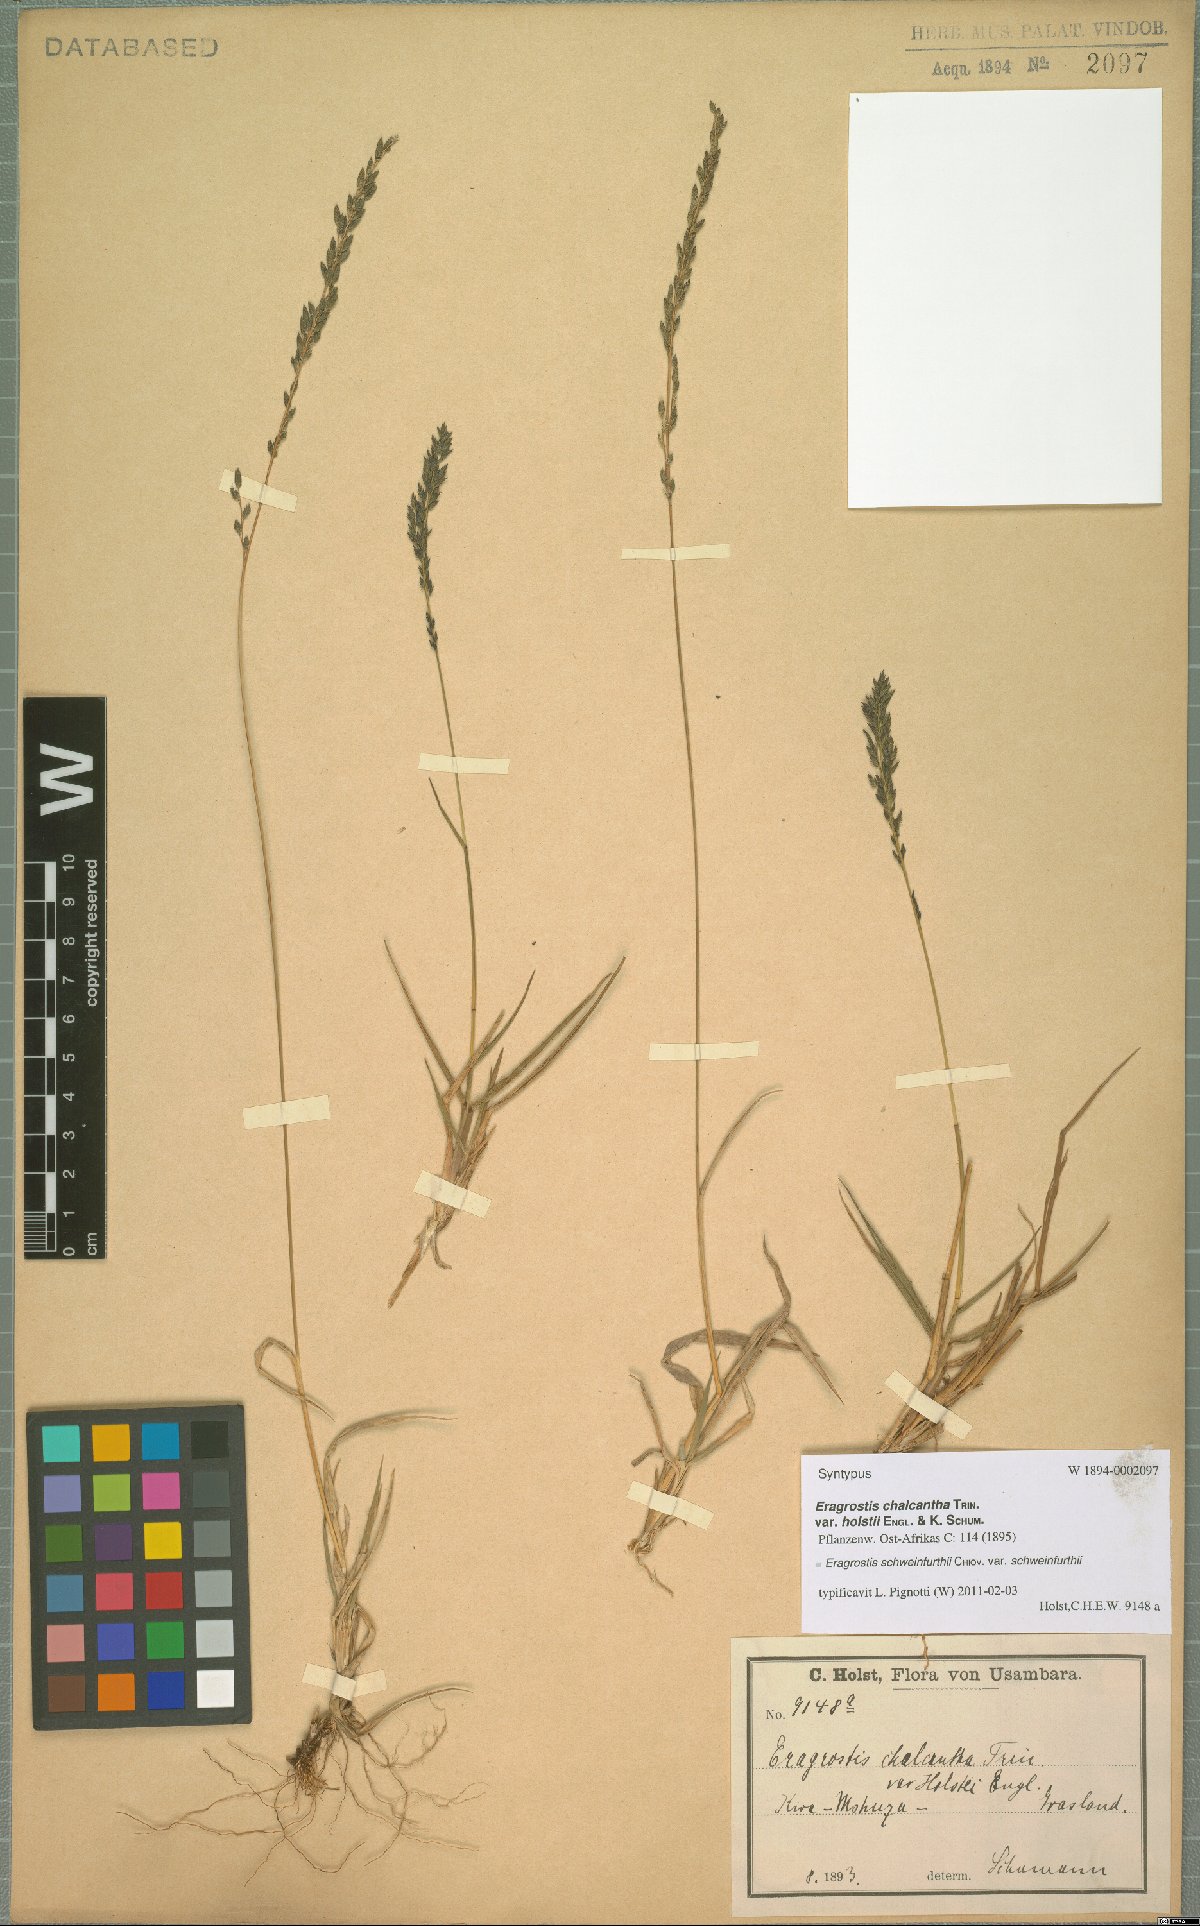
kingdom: Plantae
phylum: Tracheophyta
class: Liliopsida
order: Poales
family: Poaceae
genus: Eragrostis
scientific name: Eragrostis schweinfurthii
